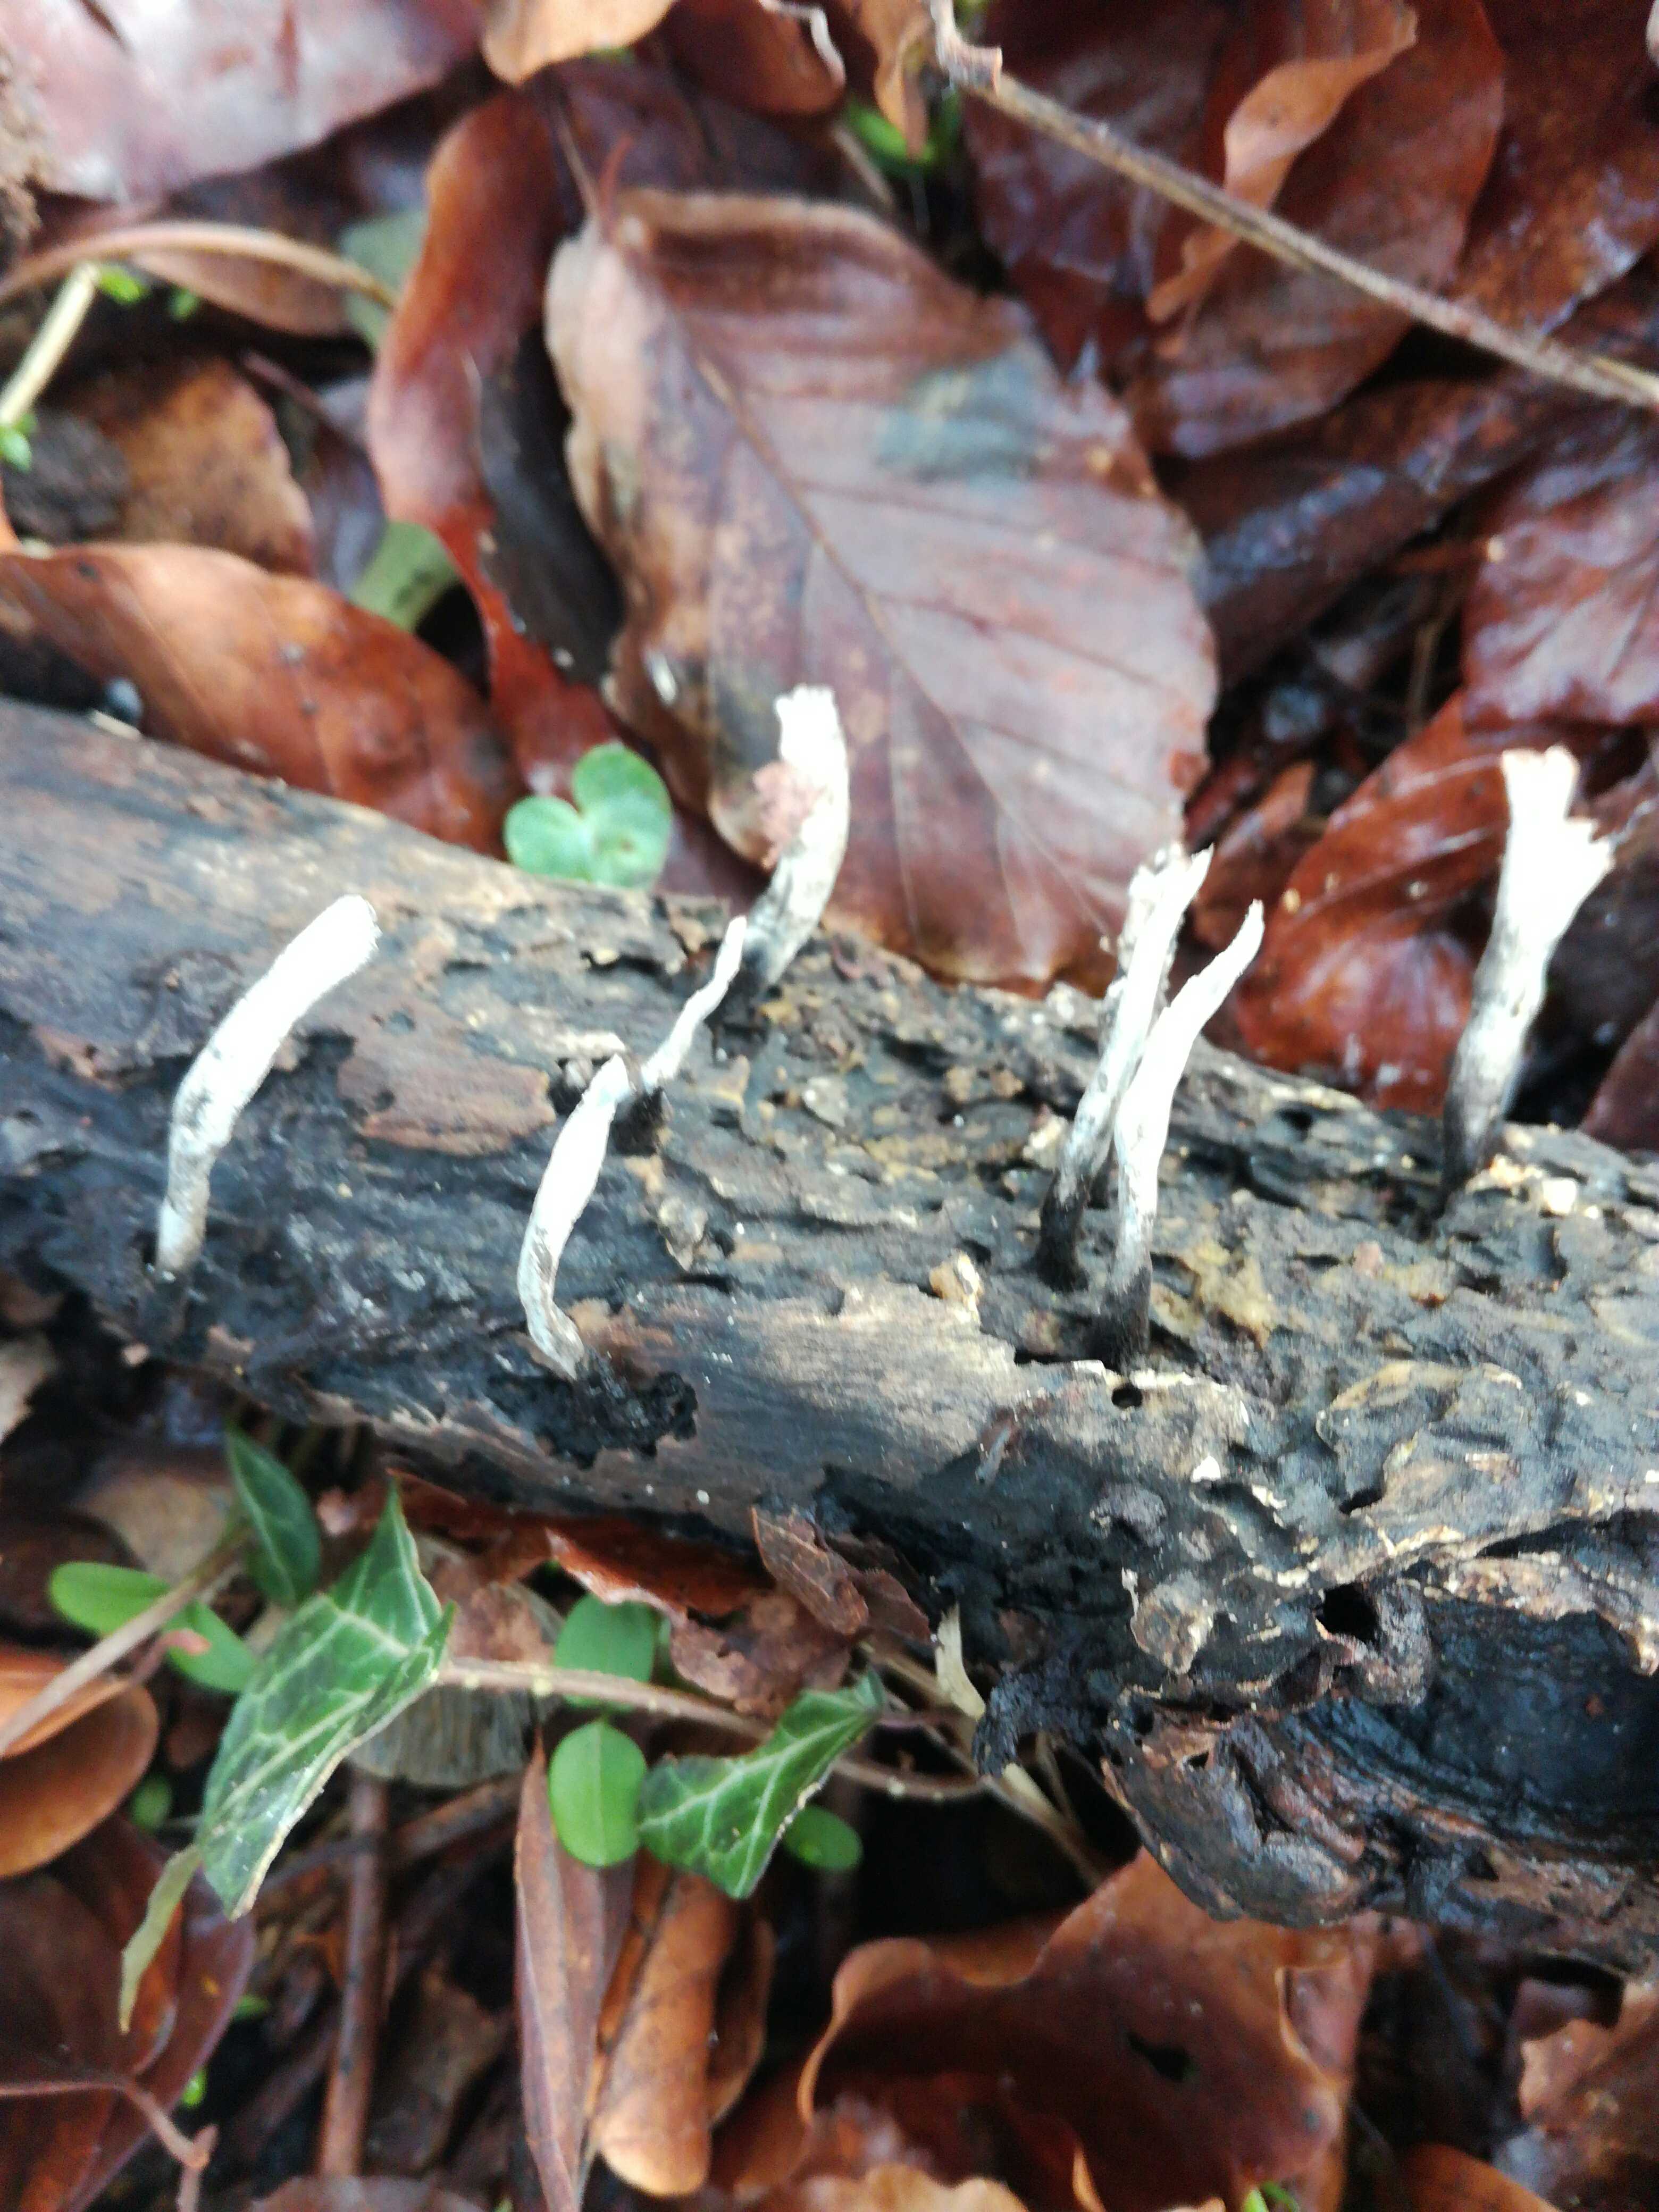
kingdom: Fungi
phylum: Ascomycota
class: Sordariomycetes
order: Xylariales
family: Xylariaceae
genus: Xylaria
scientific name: Xylaria hypoxylon
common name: grenet stødsvamp
